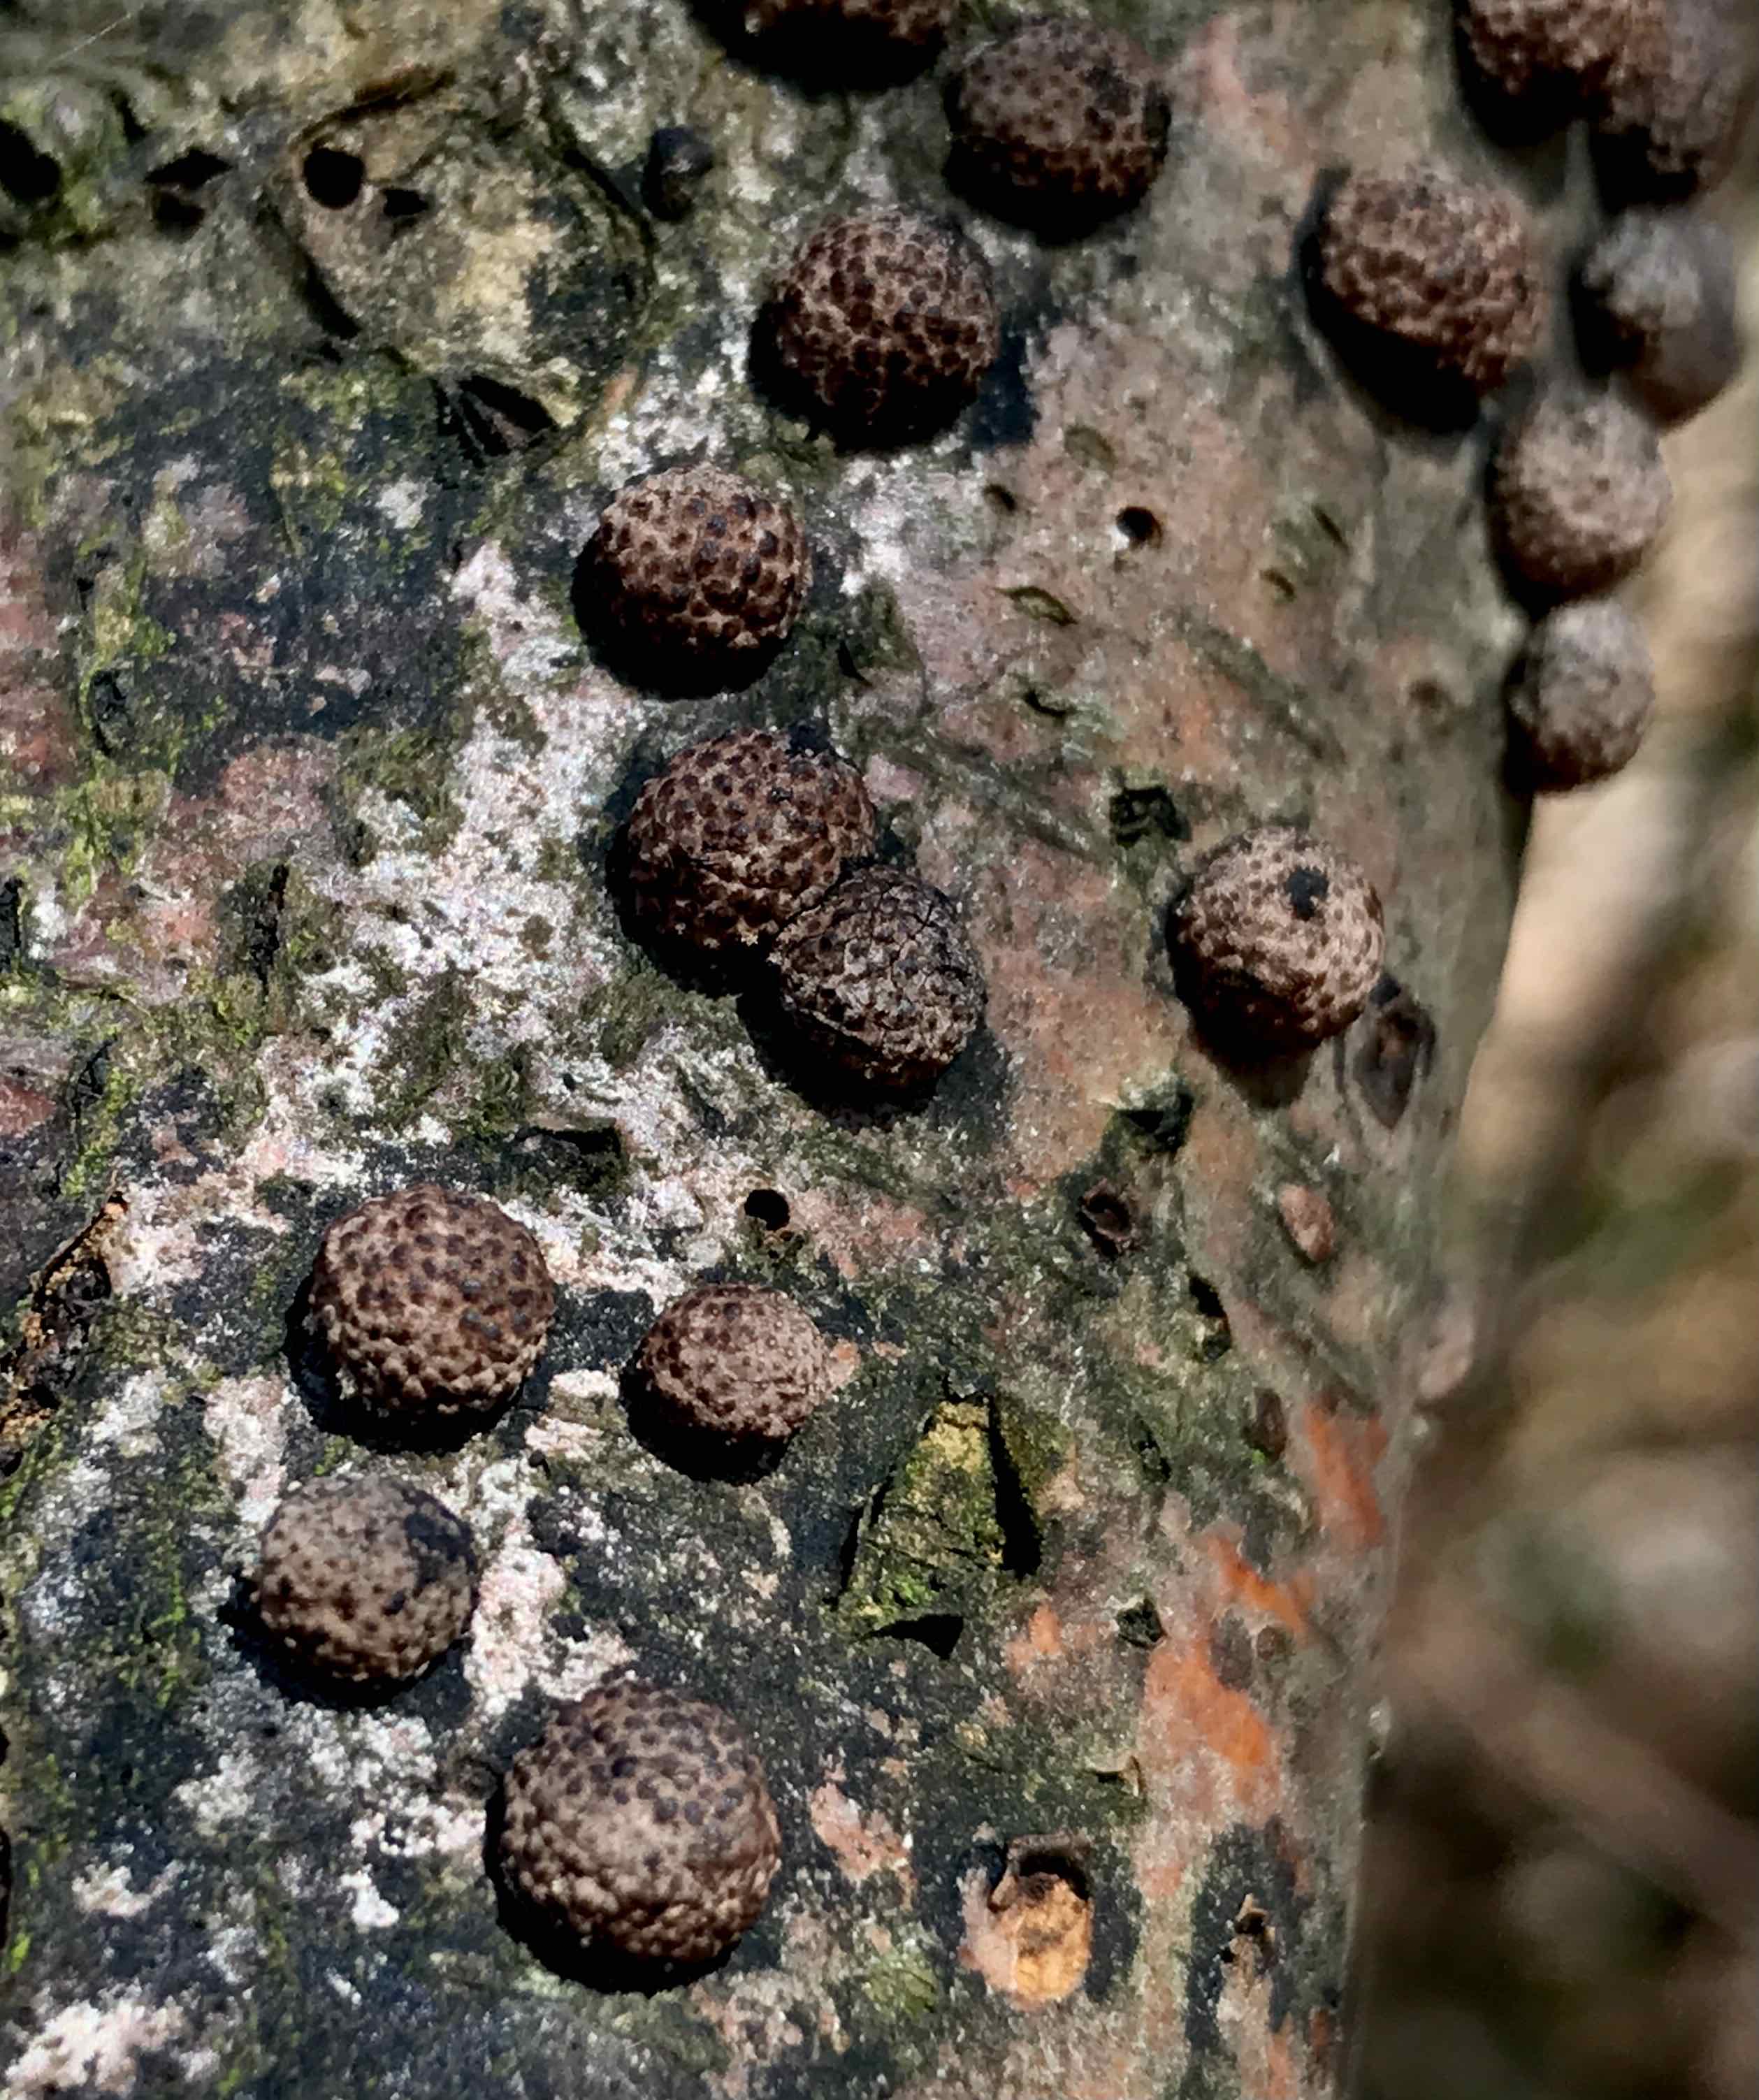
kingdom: Fungi
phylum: Ascomycota
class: Sordariomycetes
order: Xylariales
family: Hypoxylaceae
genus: Hypoxylon
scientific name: Hypoxylon fragiforme
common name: kuljordbær
